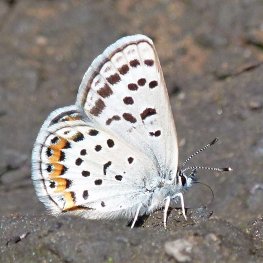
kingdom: Animalia
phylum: Arthropoda
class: Insecta
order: Lepidoptera
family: Lycaenidae
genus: Plebejus
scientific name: Plebejus lupini
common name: Lupine Blue
